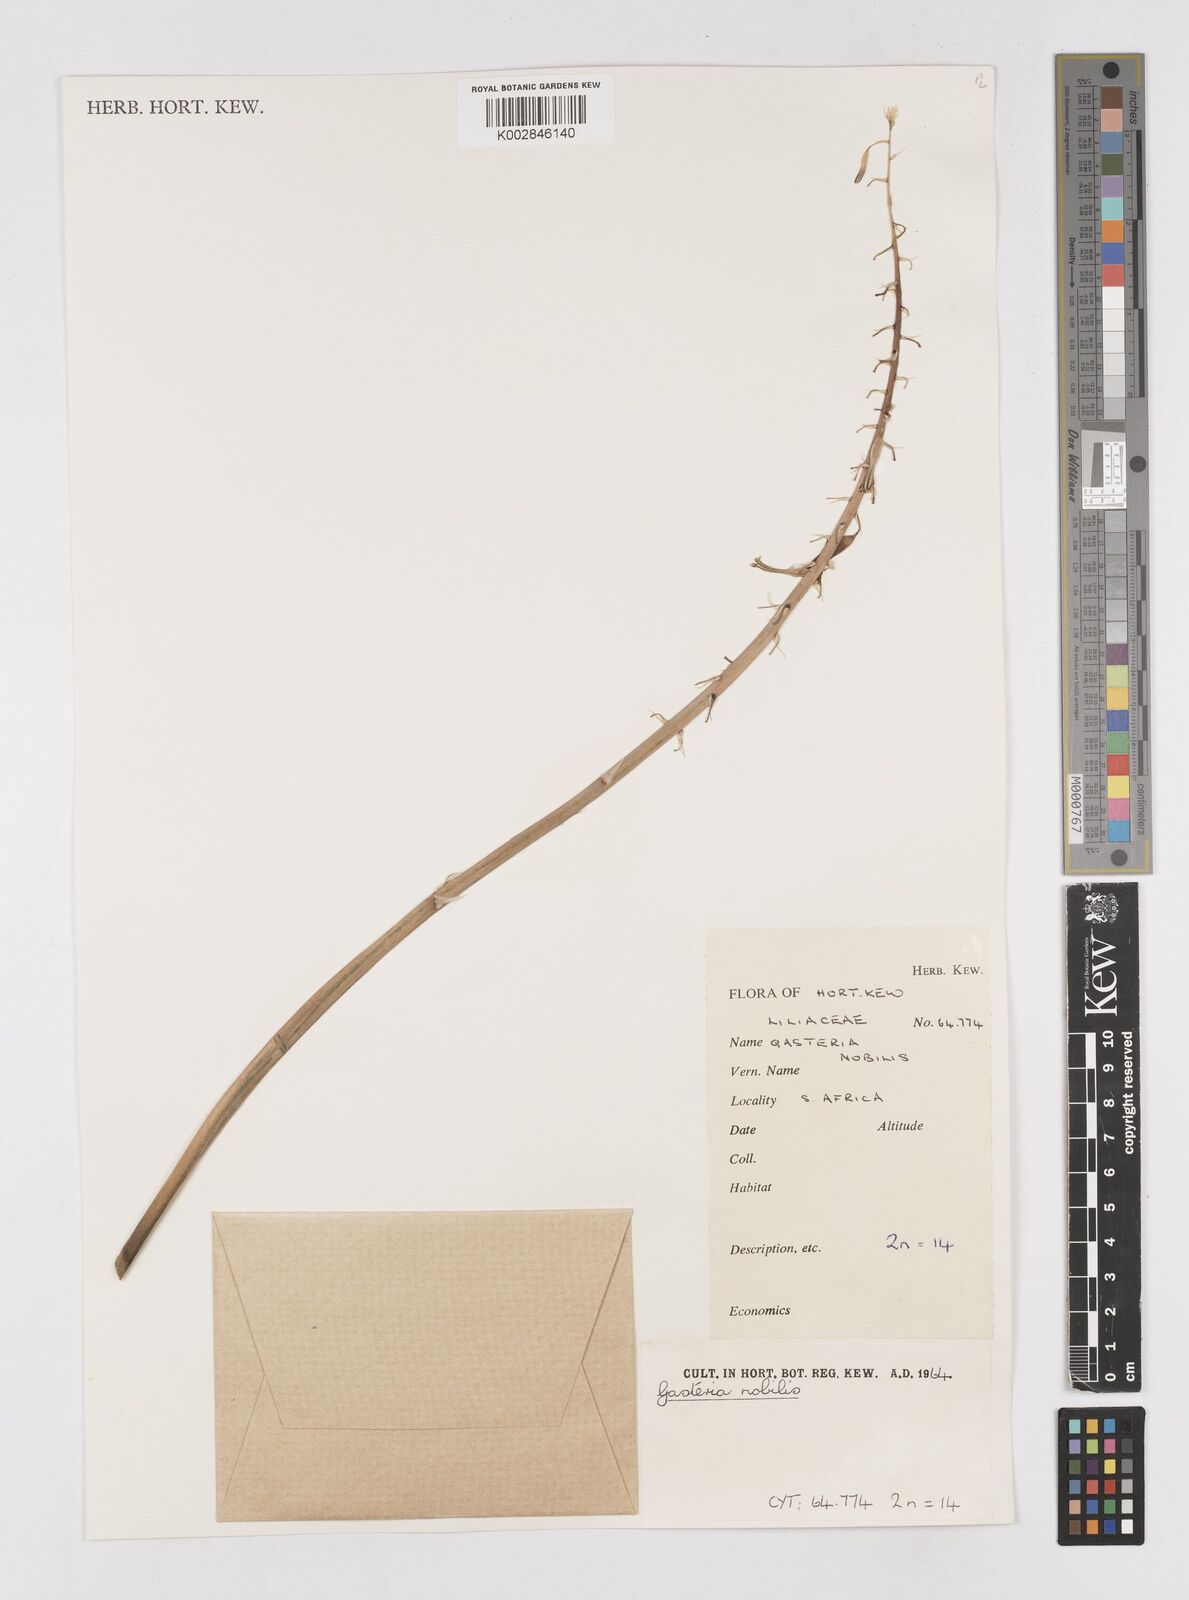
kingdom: Plantae
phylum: Tracheophyta
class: Liliopsida
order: Asparagales
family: Asphodelaceae
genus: Gasteria
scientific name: Gasteria
